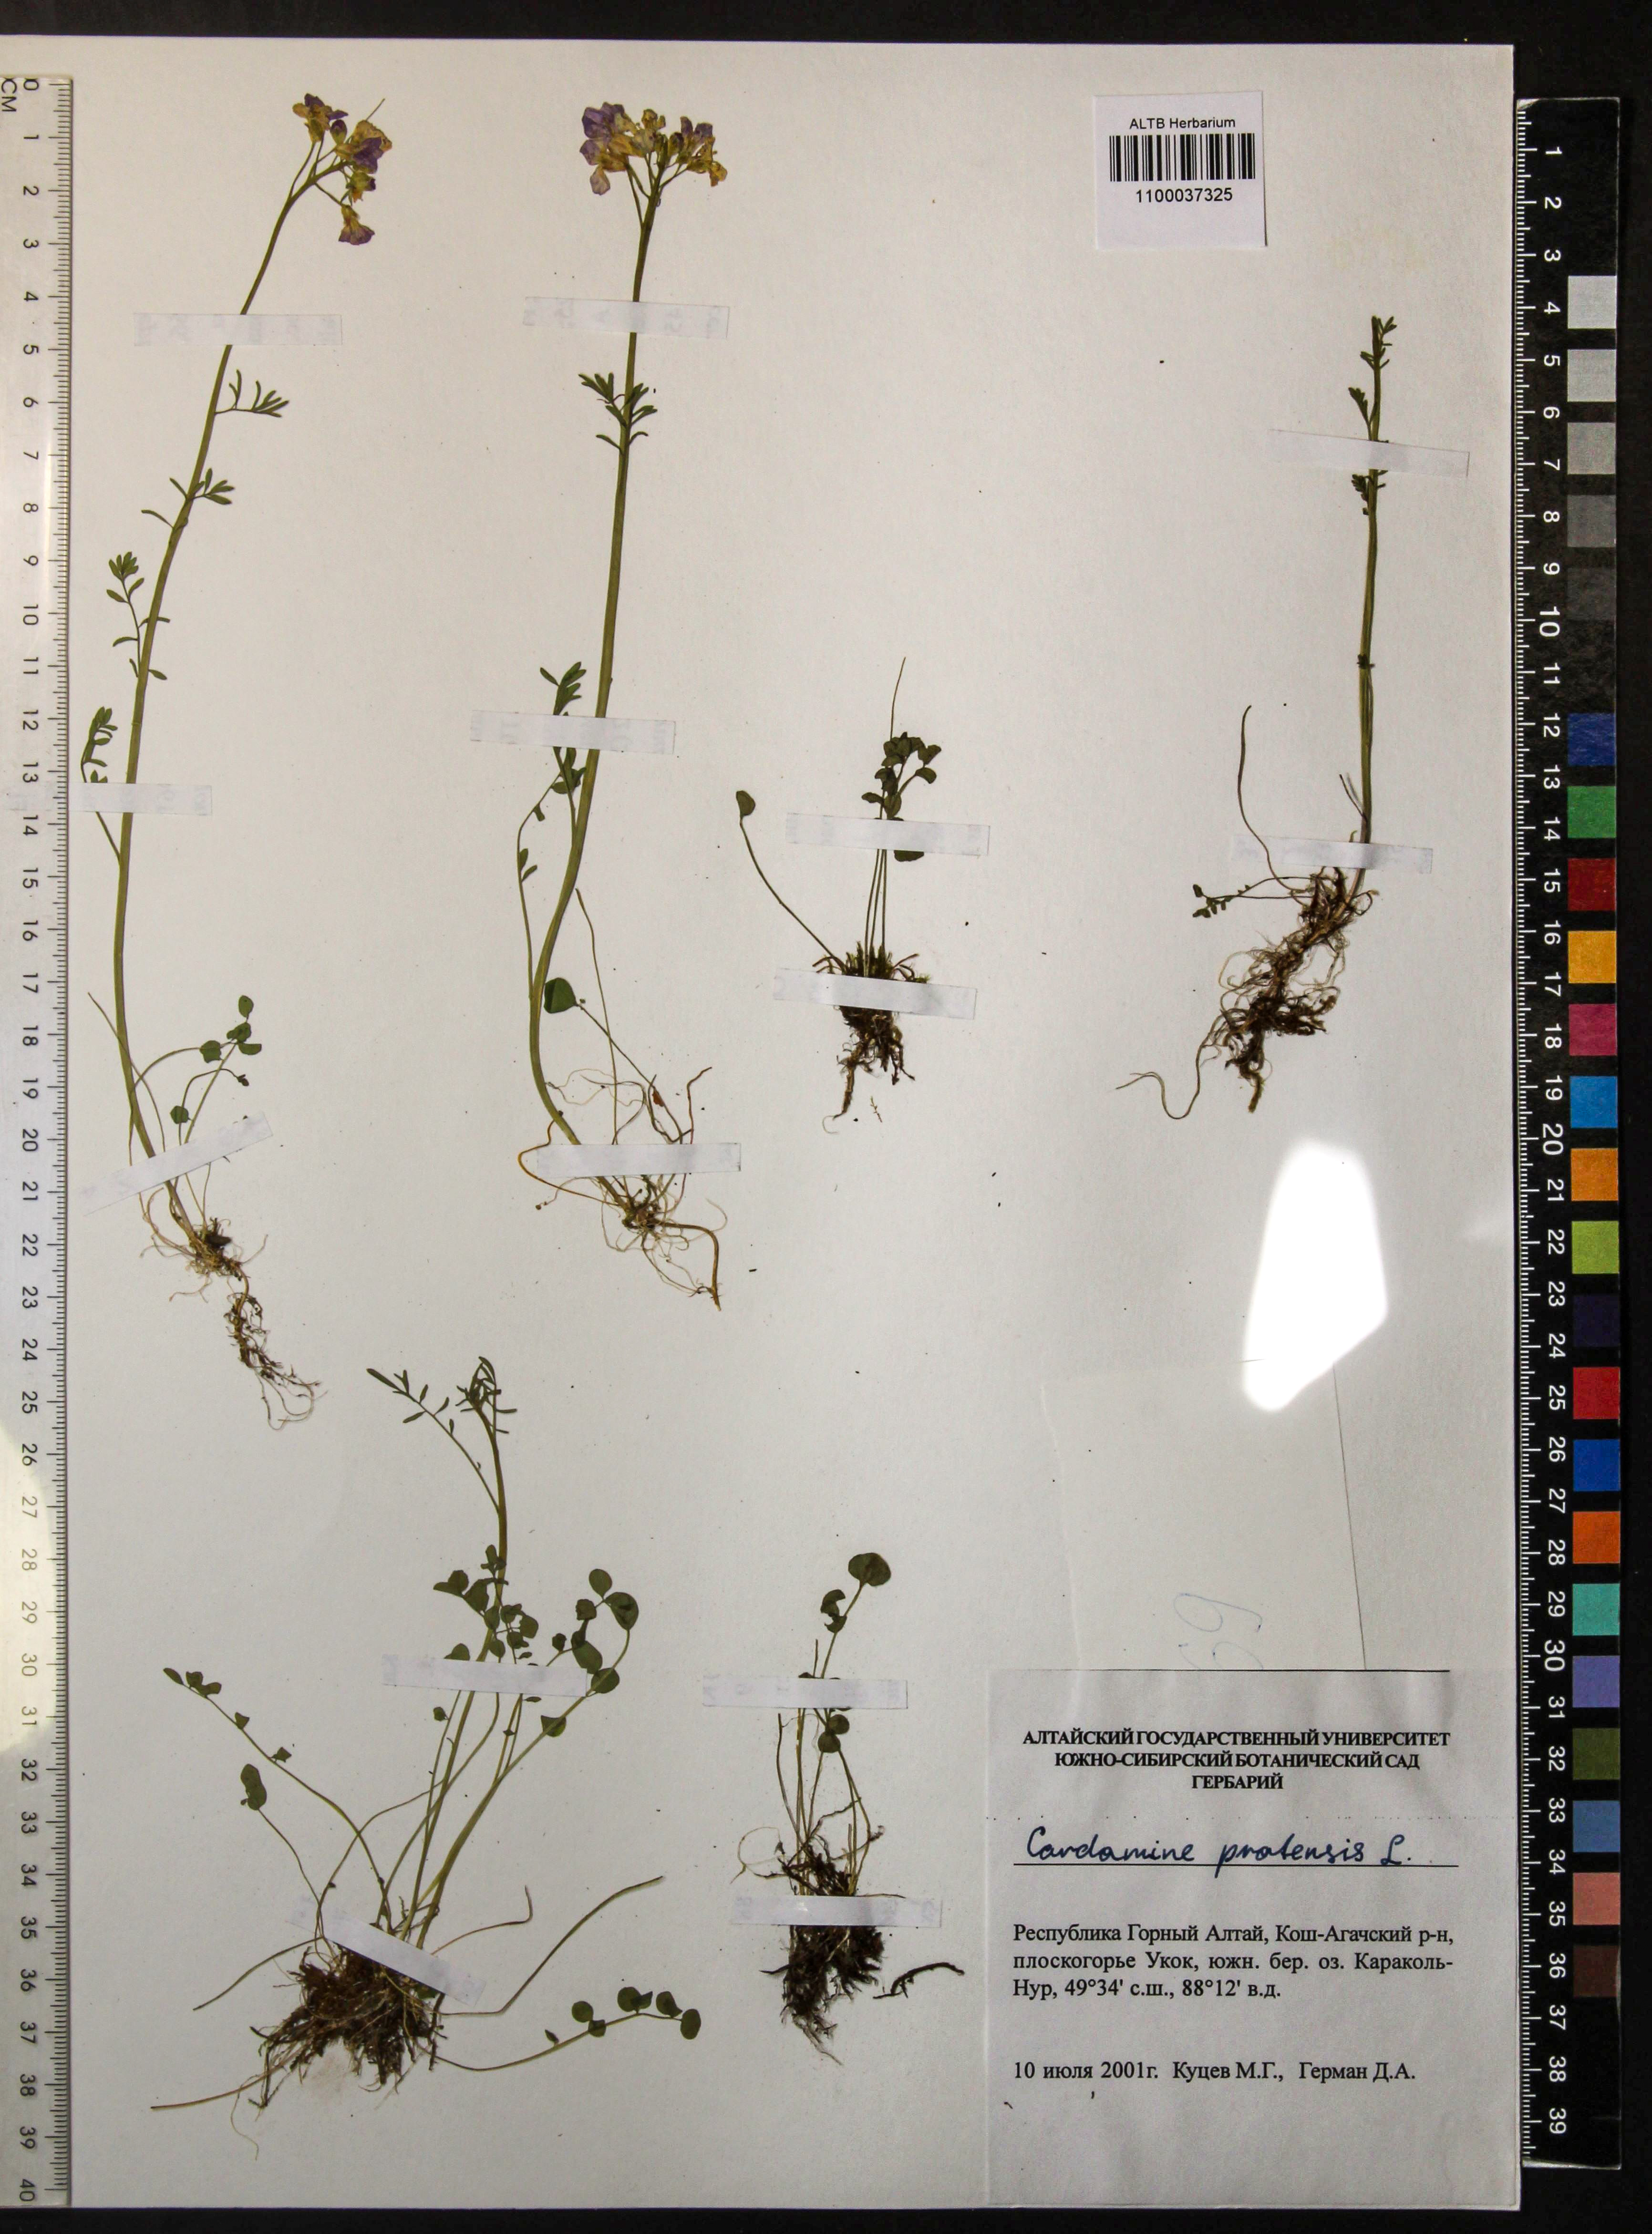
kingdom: Plantae
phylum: Tracheophyta
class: Magnoliopsida
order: Brassicales
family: Brassicaceae
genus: Cardamine
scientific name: Cardamine pratensis
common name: Cuckoo flower
